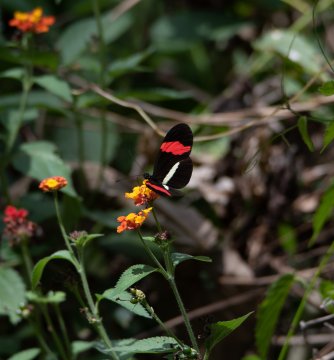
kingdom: Animalia
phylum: Arthropoda
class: Insecta
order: Lepidoptera
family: Nymphalidae
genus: Heliconius
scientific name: Heliconius erato
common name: Erato Heliconian
